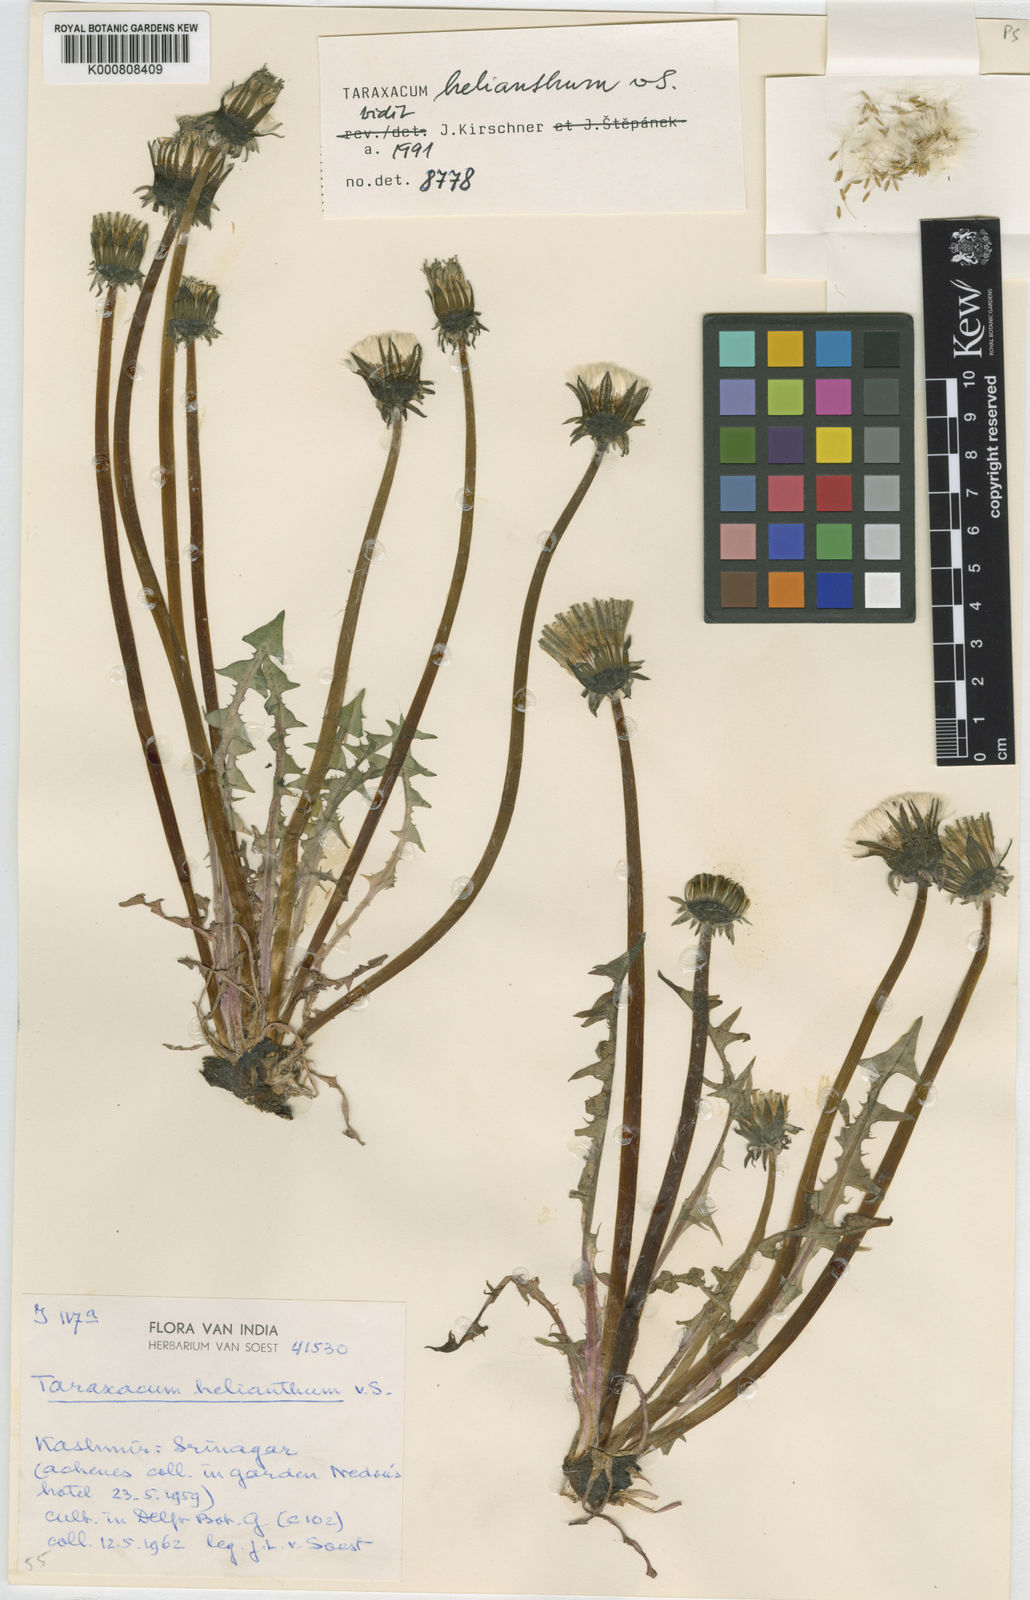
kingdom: Plantae
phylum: Tracheophyta
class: Magnoliopsida
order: Asterales
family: Asteraceae
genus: Taraxacum
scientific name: Taraxacum
